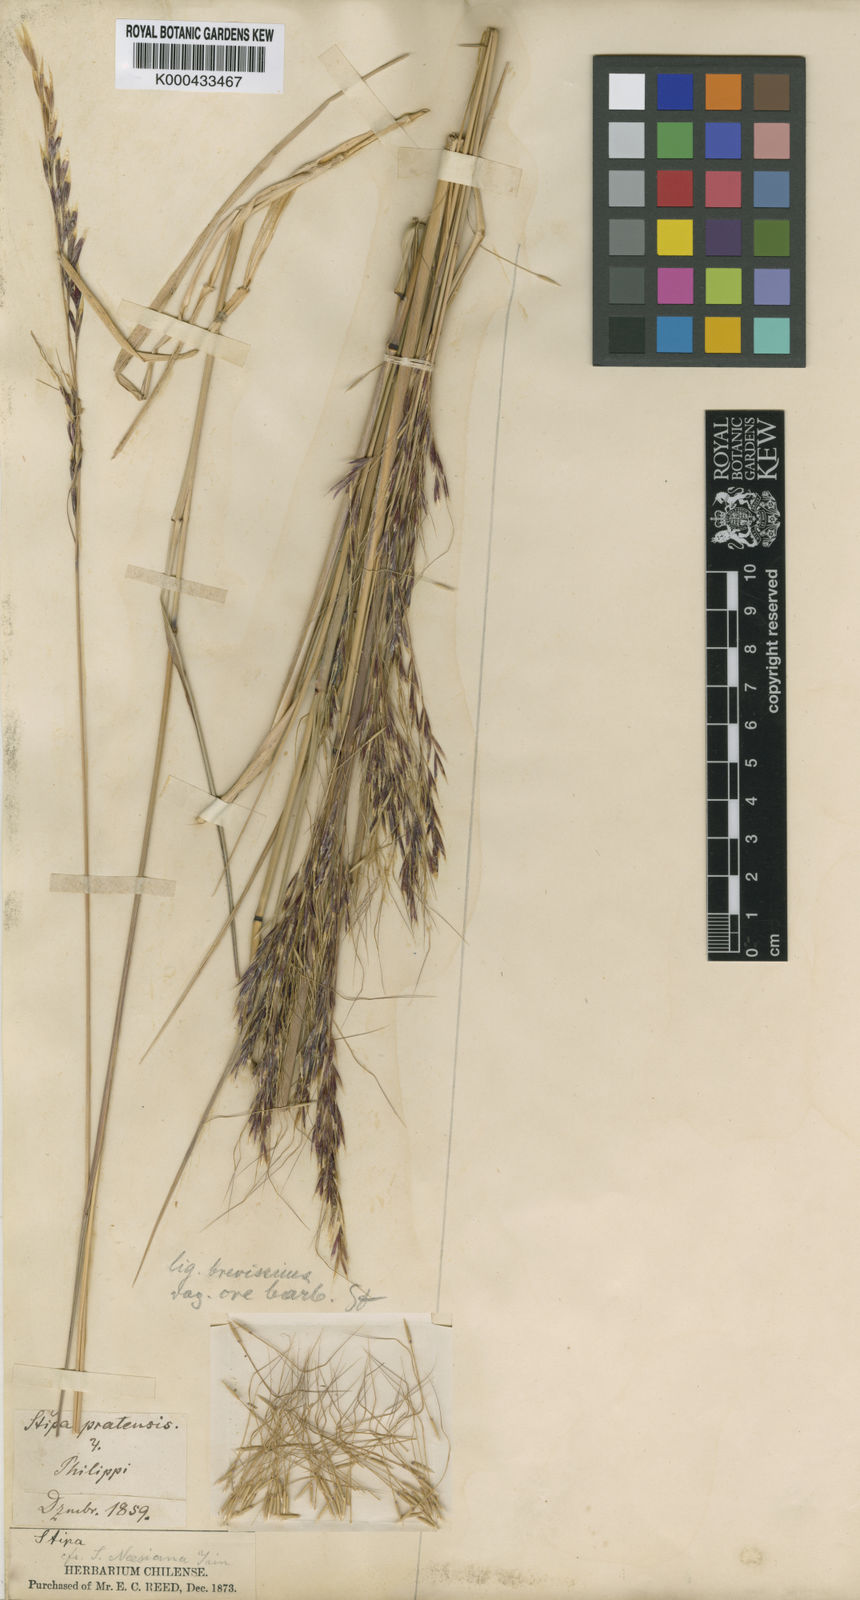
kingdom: Plantae
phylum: Tracheophyta
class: Liliopsida
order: Poales
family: Poaceae
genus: Stipa
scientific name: Stipa
